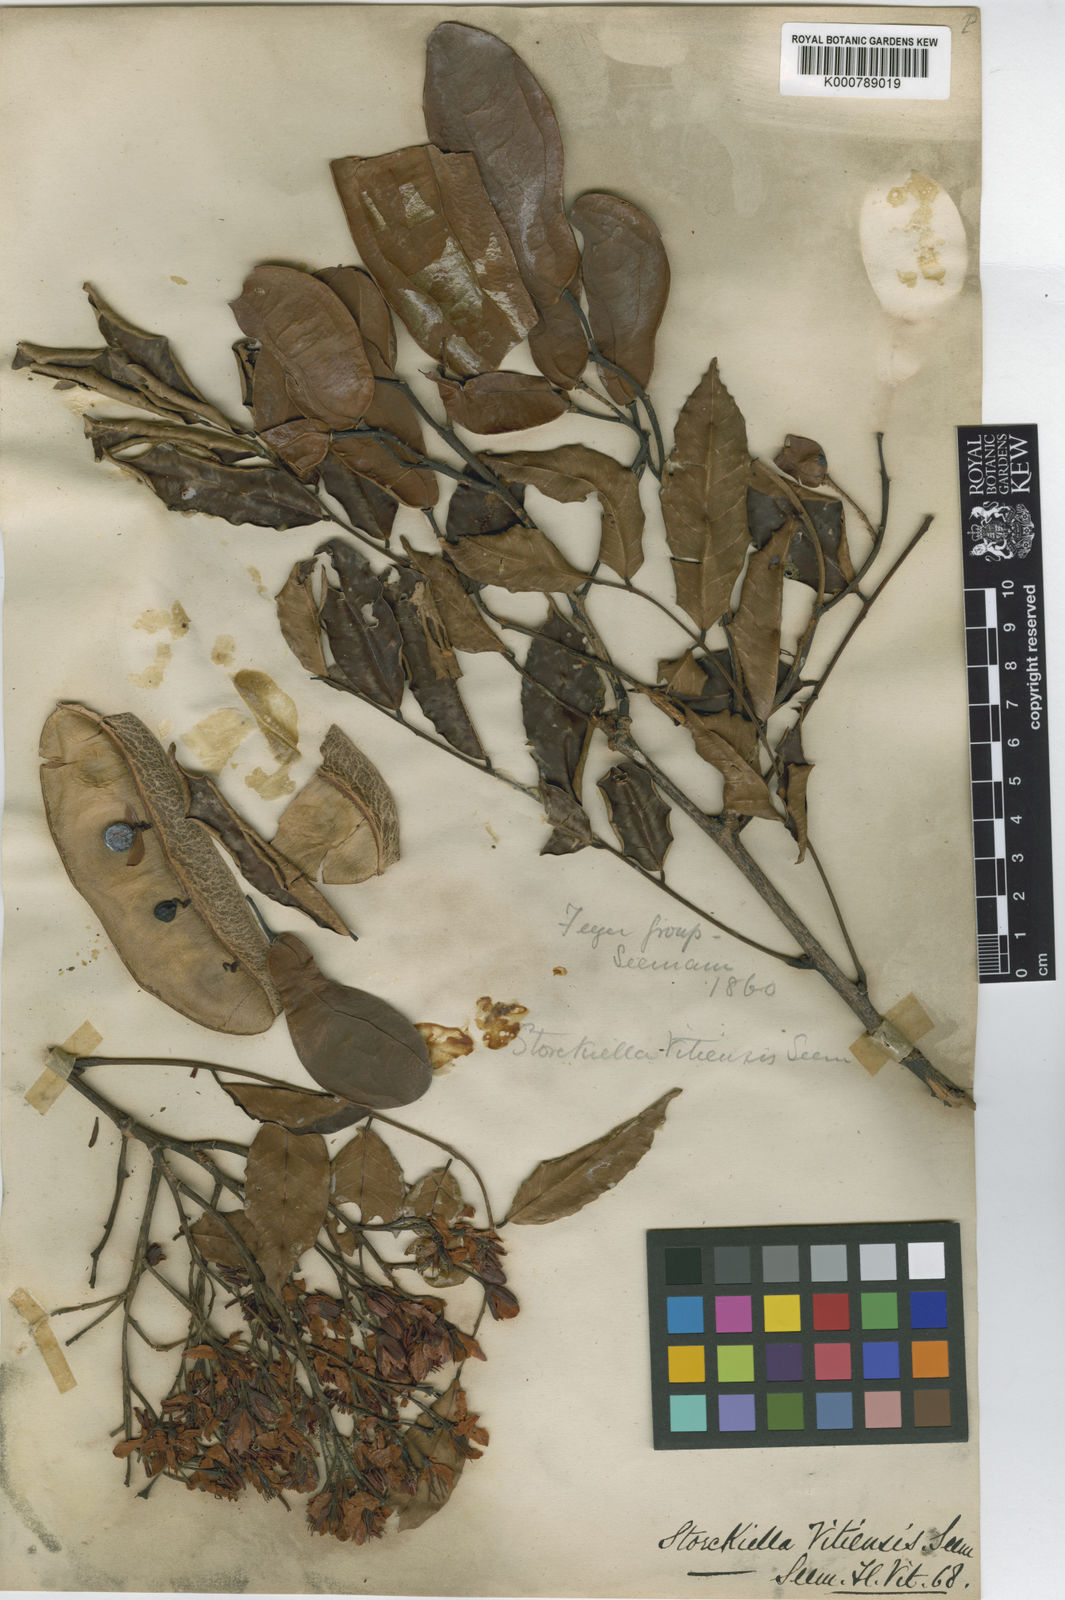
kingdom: Plantae
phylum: Tracheophyta
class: Magnoliopsida
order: Fabales
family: Fabaceae
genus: Storckiella
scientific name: Storckiella vitiensis
